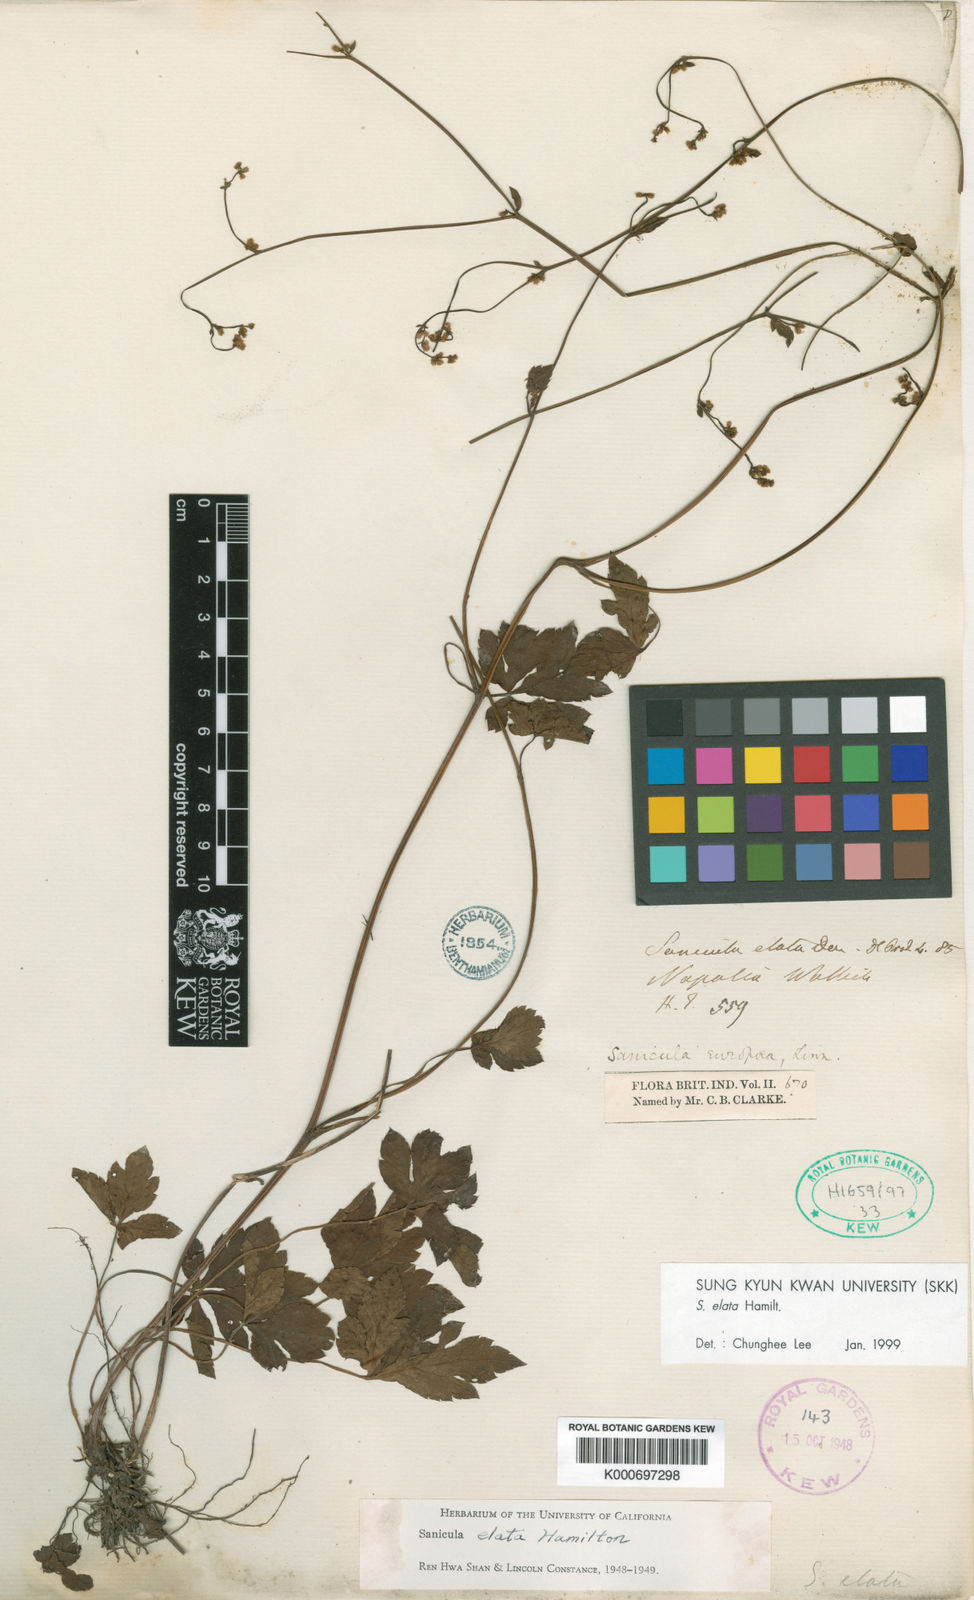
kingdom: Plantae
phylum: Tracheophyta
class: Magnoliopsida
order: Apiales
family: Apiaceae
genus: Sanicula
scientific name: Sanicula elata
